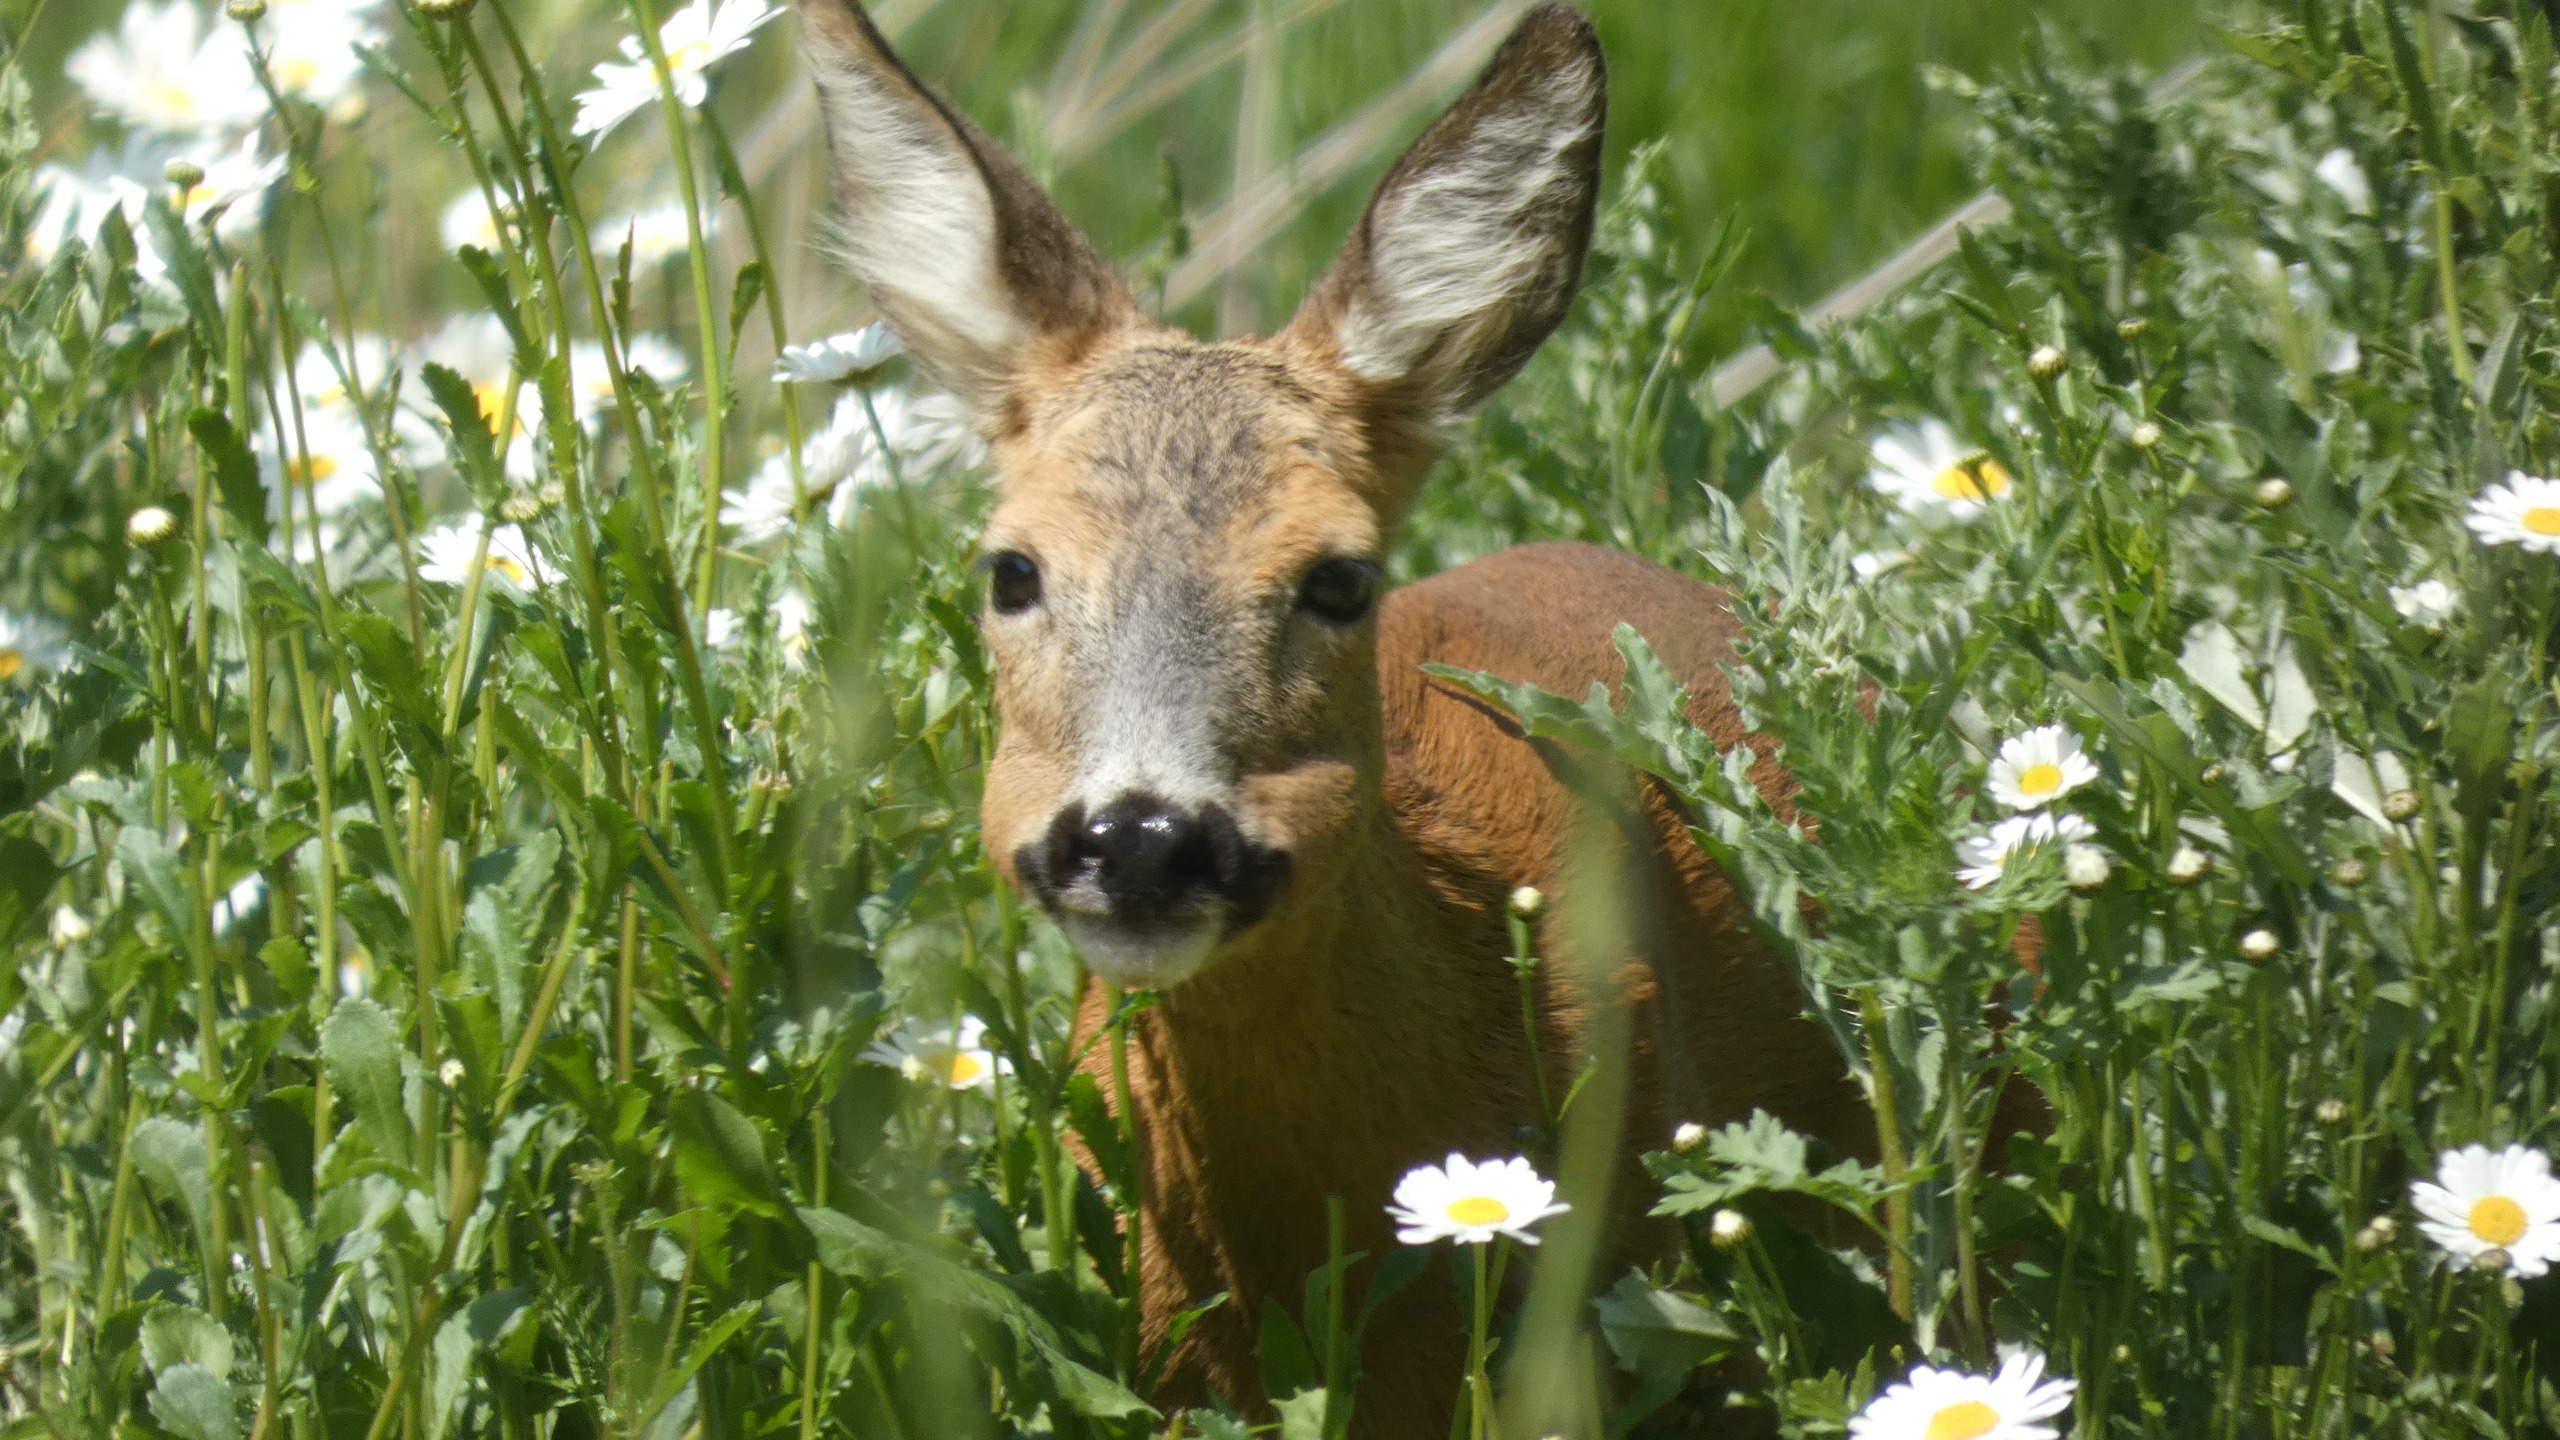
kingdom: Animalia
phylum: Chordata
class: Mammalia
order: Artiodactyla
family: Cervidae
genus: Capreolus
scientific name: Capreolus capreolus
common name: Rådyr
